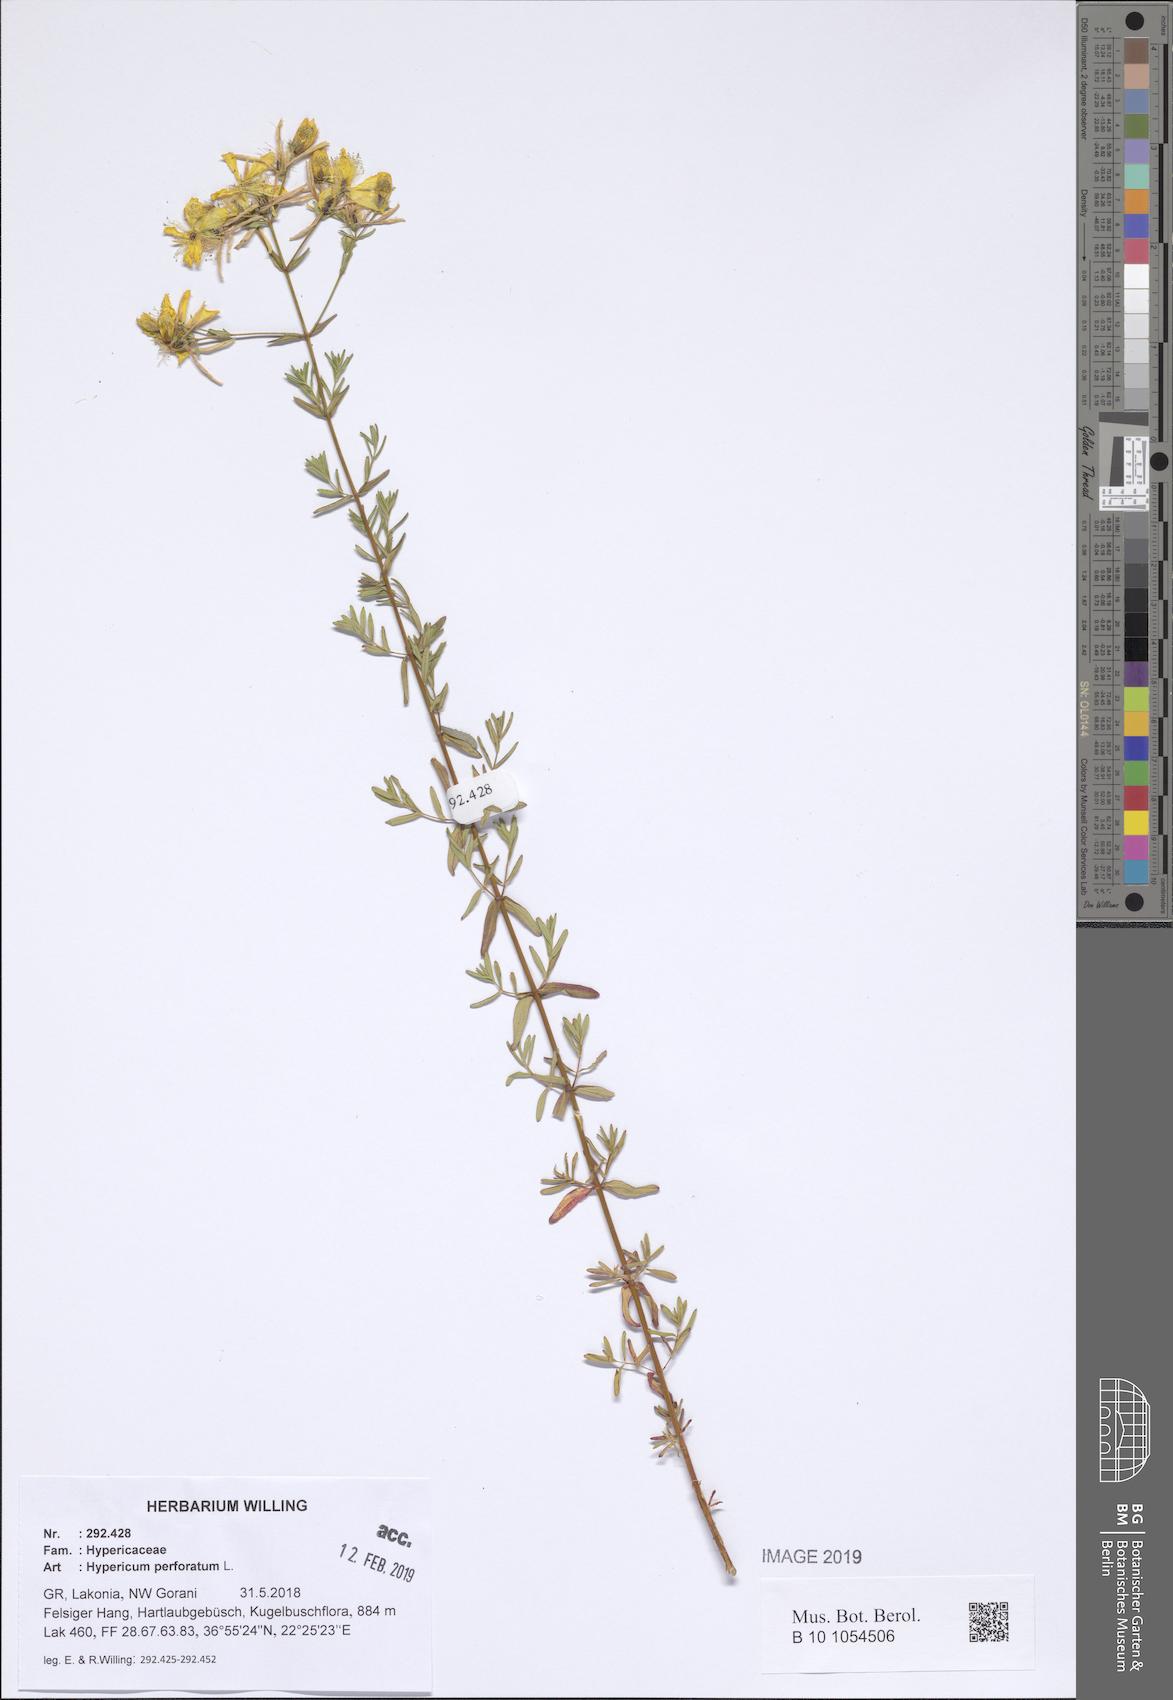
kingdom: Plantae
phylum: Tracheophyta
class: Magnoliopsida
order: Malpighiales
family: Hypericaceae
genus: Hypericum
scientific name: Hypericum perforatum
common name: Common st. johnswort
